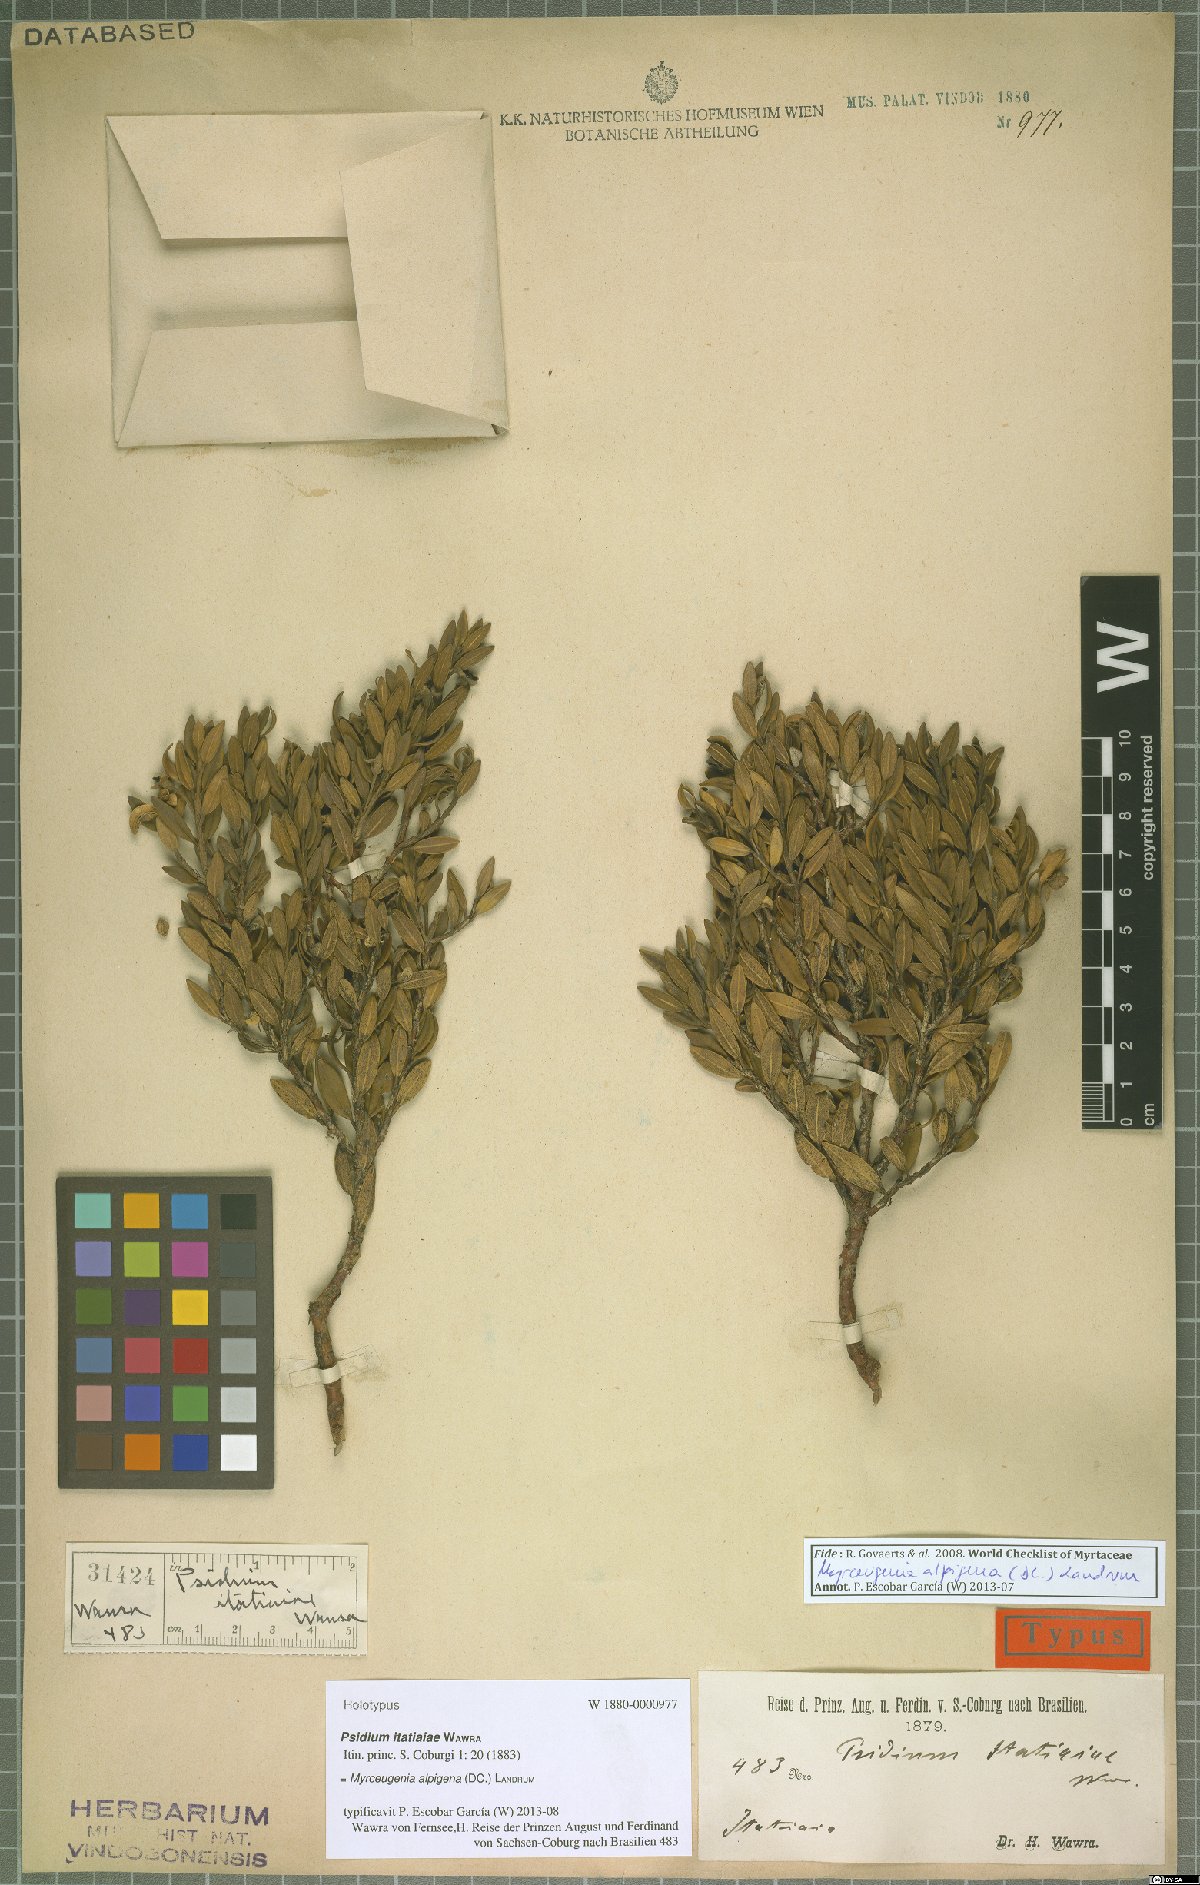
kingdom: Plantae
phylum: Tracheophyta
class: Magnoliopsida
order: Myrtales
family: Myrtaceae
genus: Myrceugenia
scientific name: Myrceugenia alpigena
